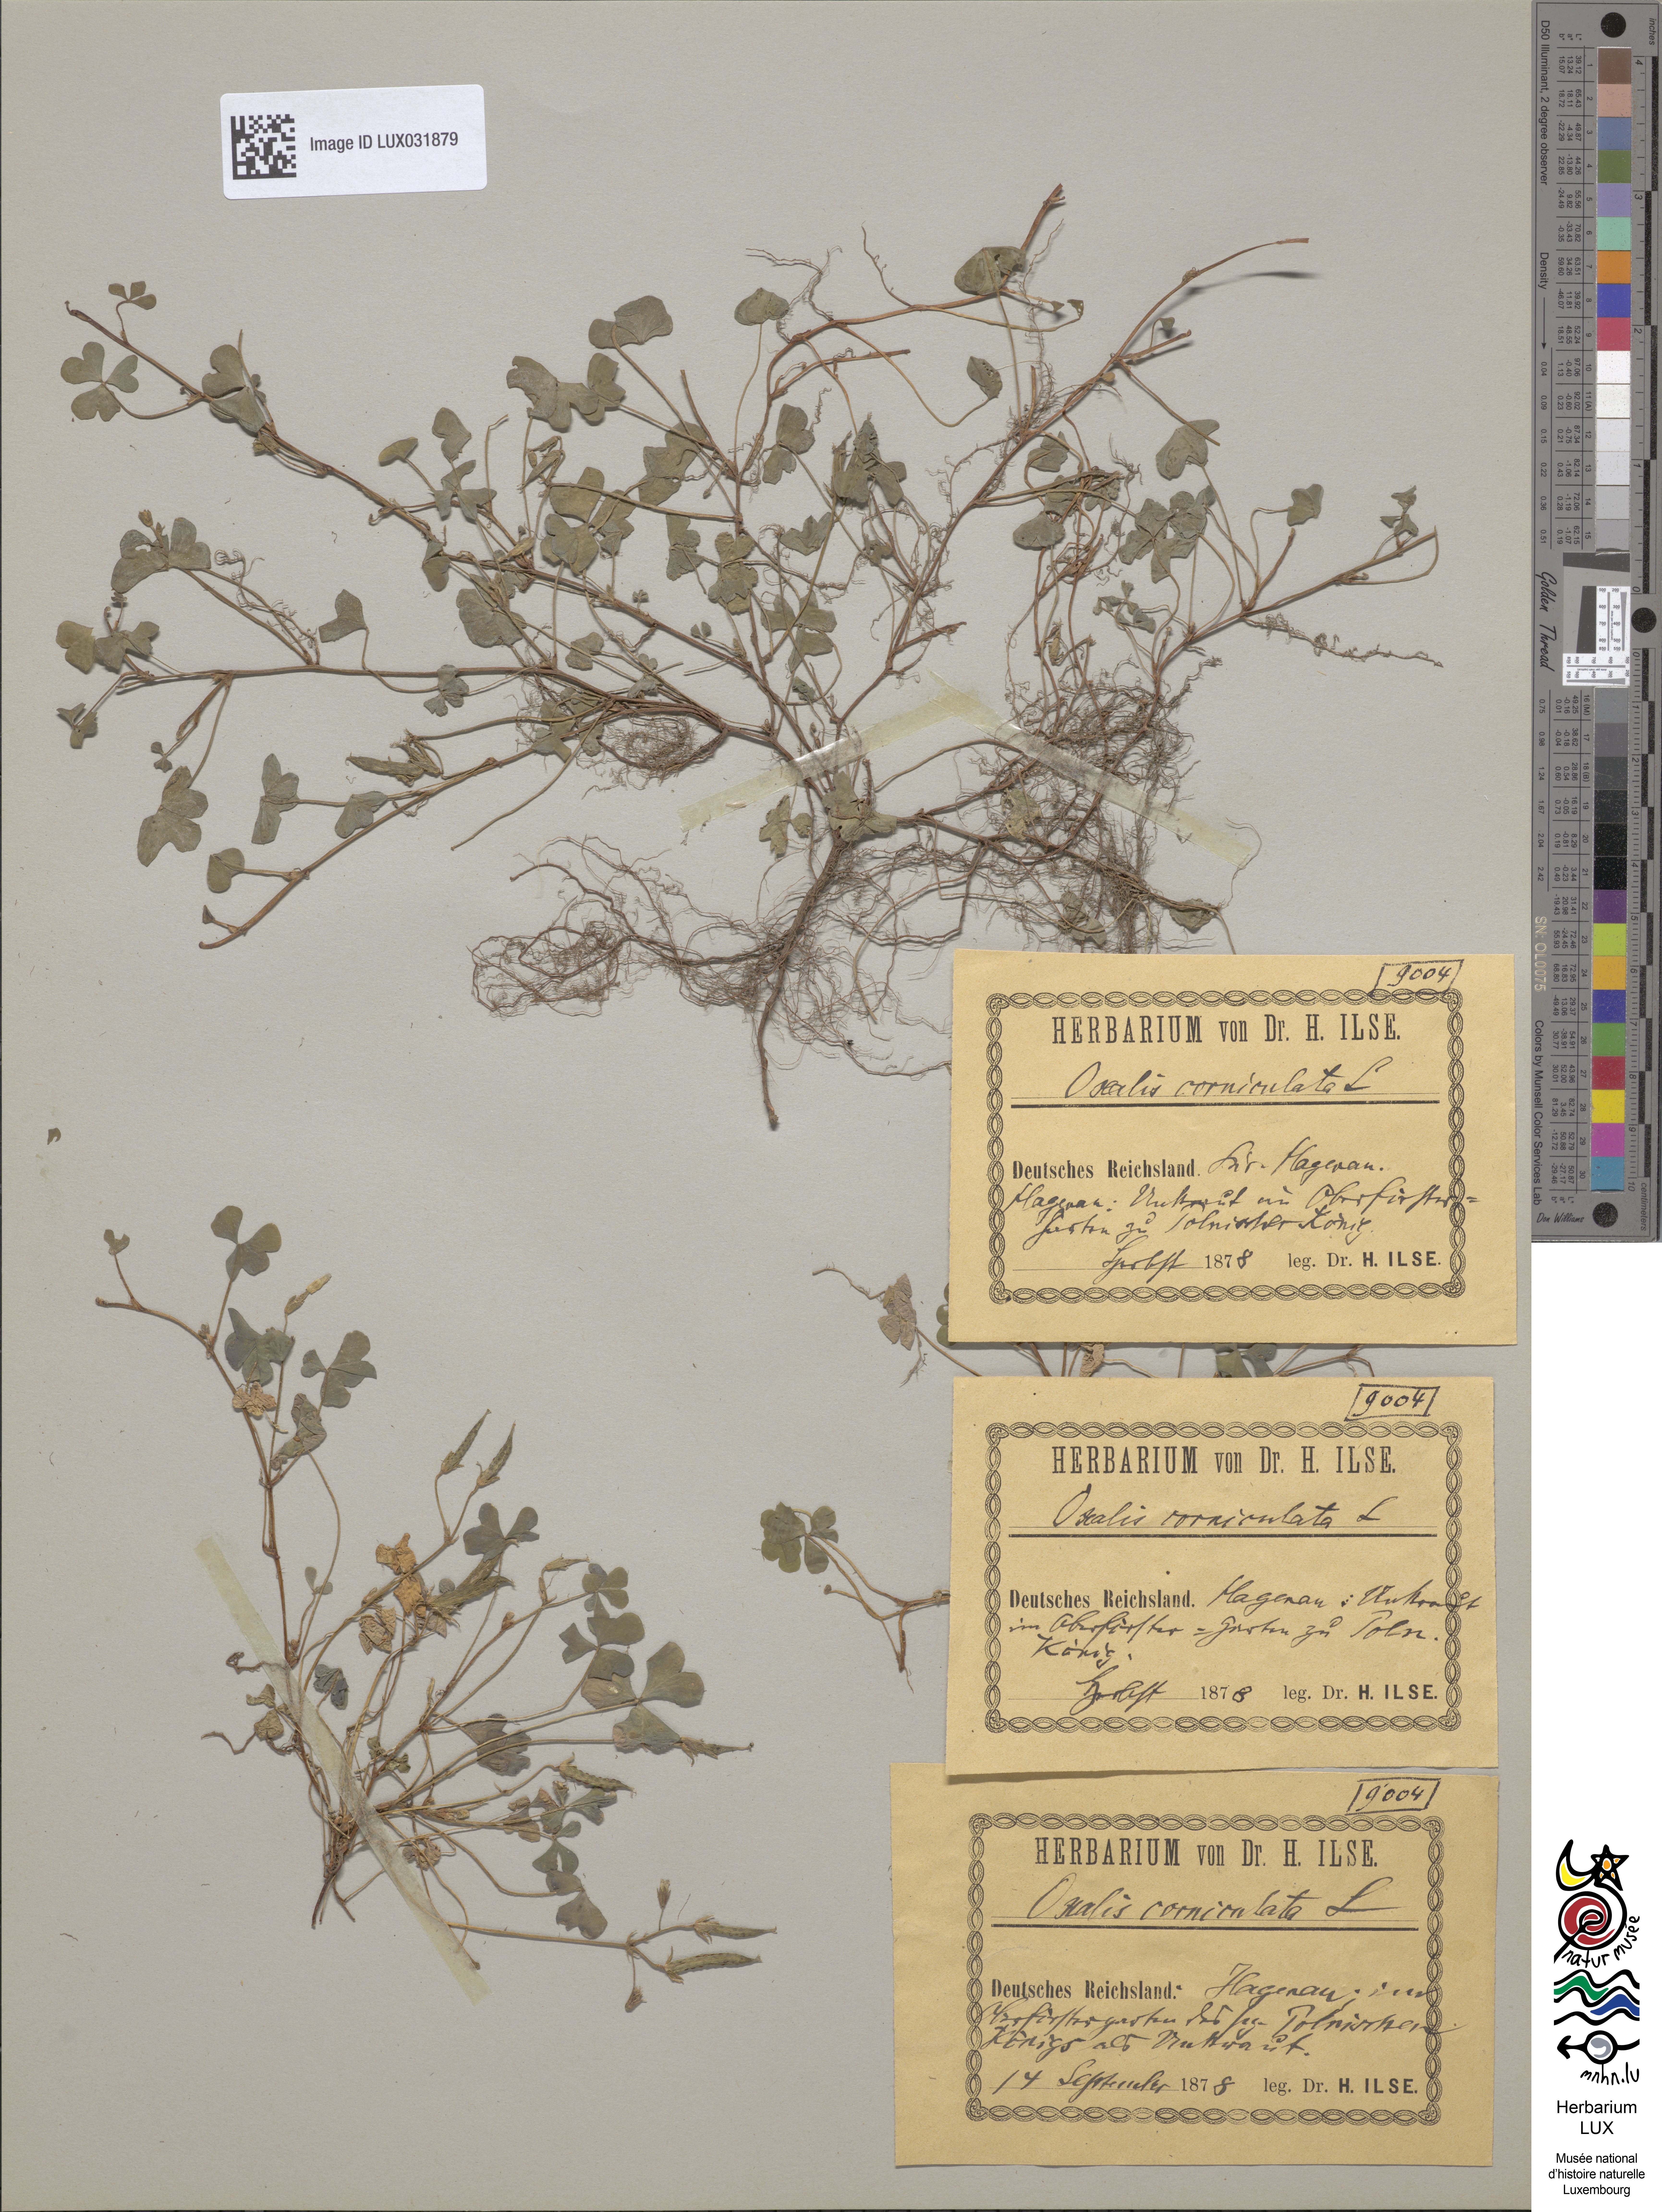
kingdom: Plantae
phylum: Tracheophyta
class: Magnoliopsida
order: Oxalidales
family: Oxalidaceae
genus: Oxalis
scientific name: Oxalis corniculata
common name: Procumbent yellow-sorrel
